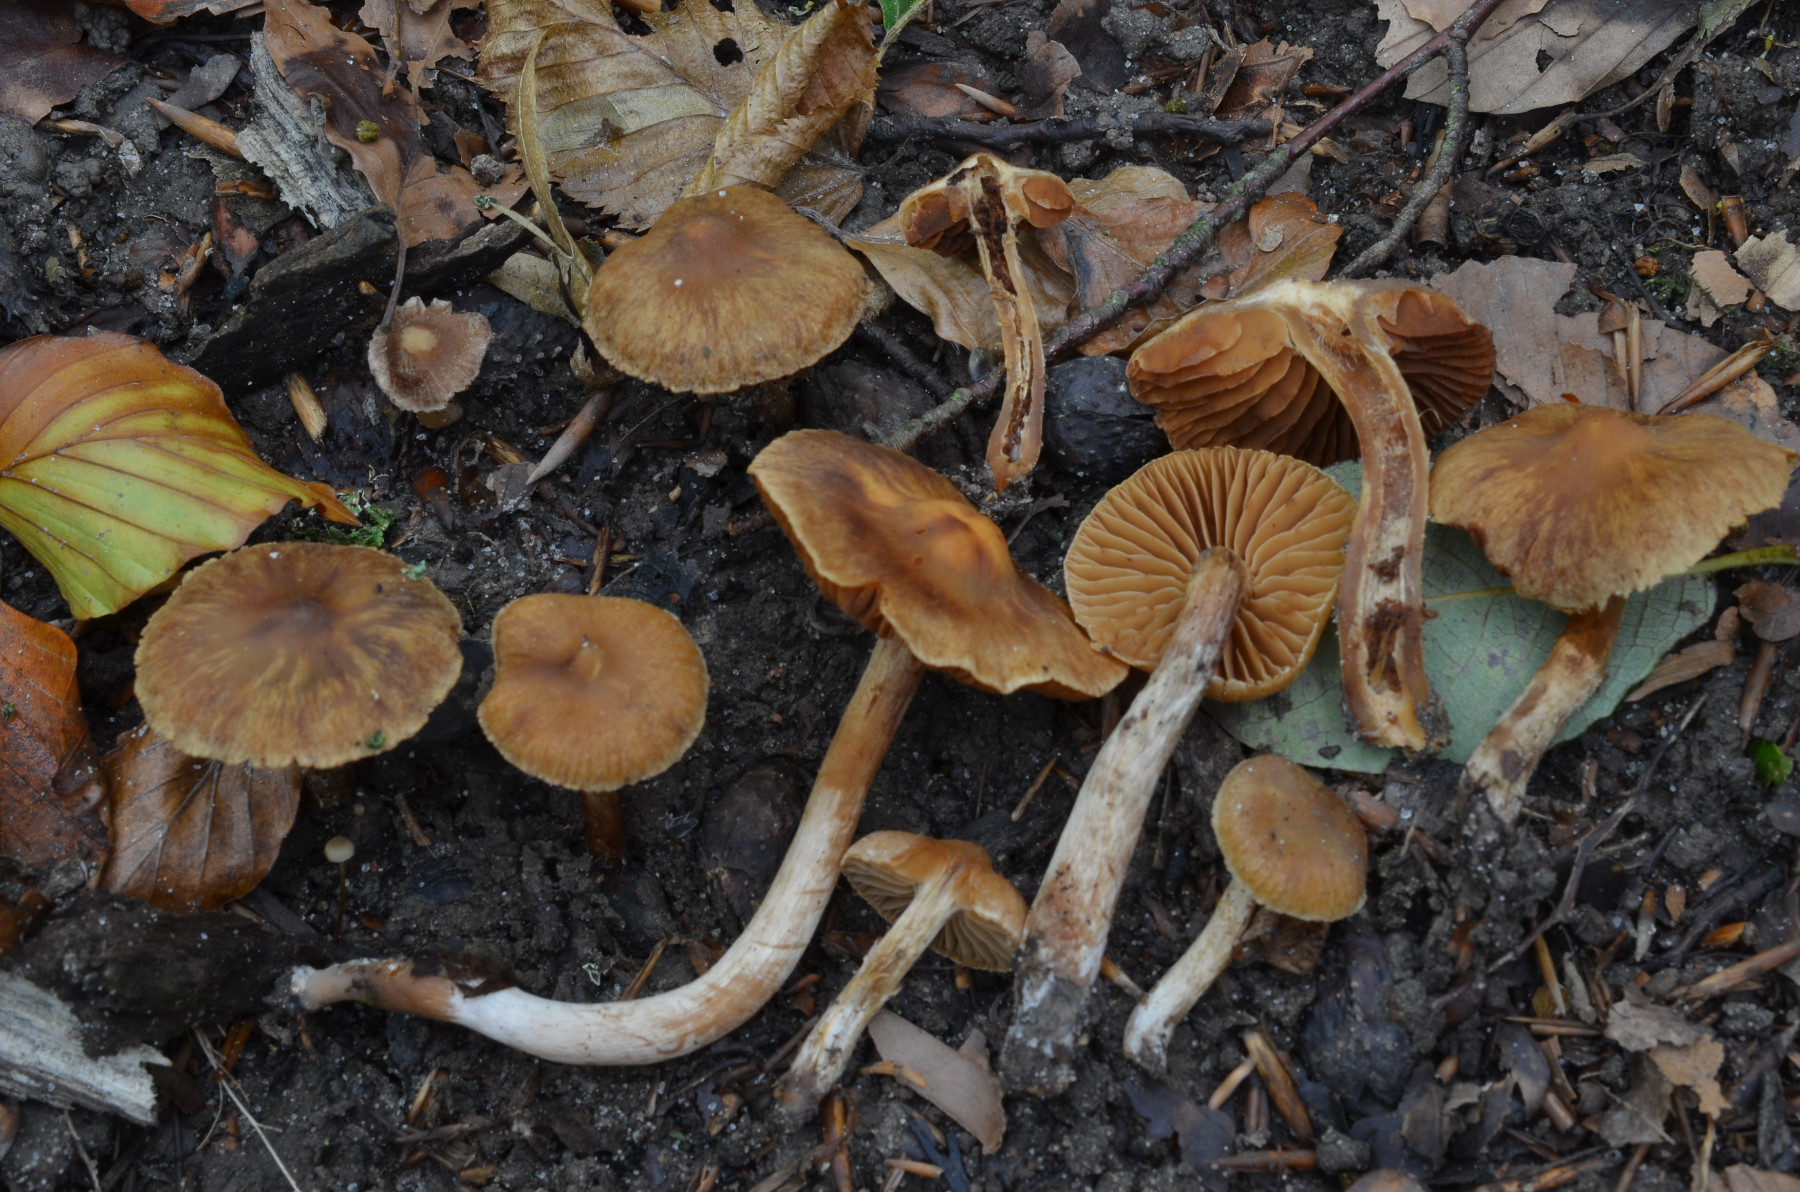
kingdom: Fungi
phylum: Basidiomycota
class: Agaricomycetes
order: Agaricales
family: Cortinariaceae
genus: Cortinarius
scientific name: Cortinarius hinnuleus
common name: ildelugtende slørhat
